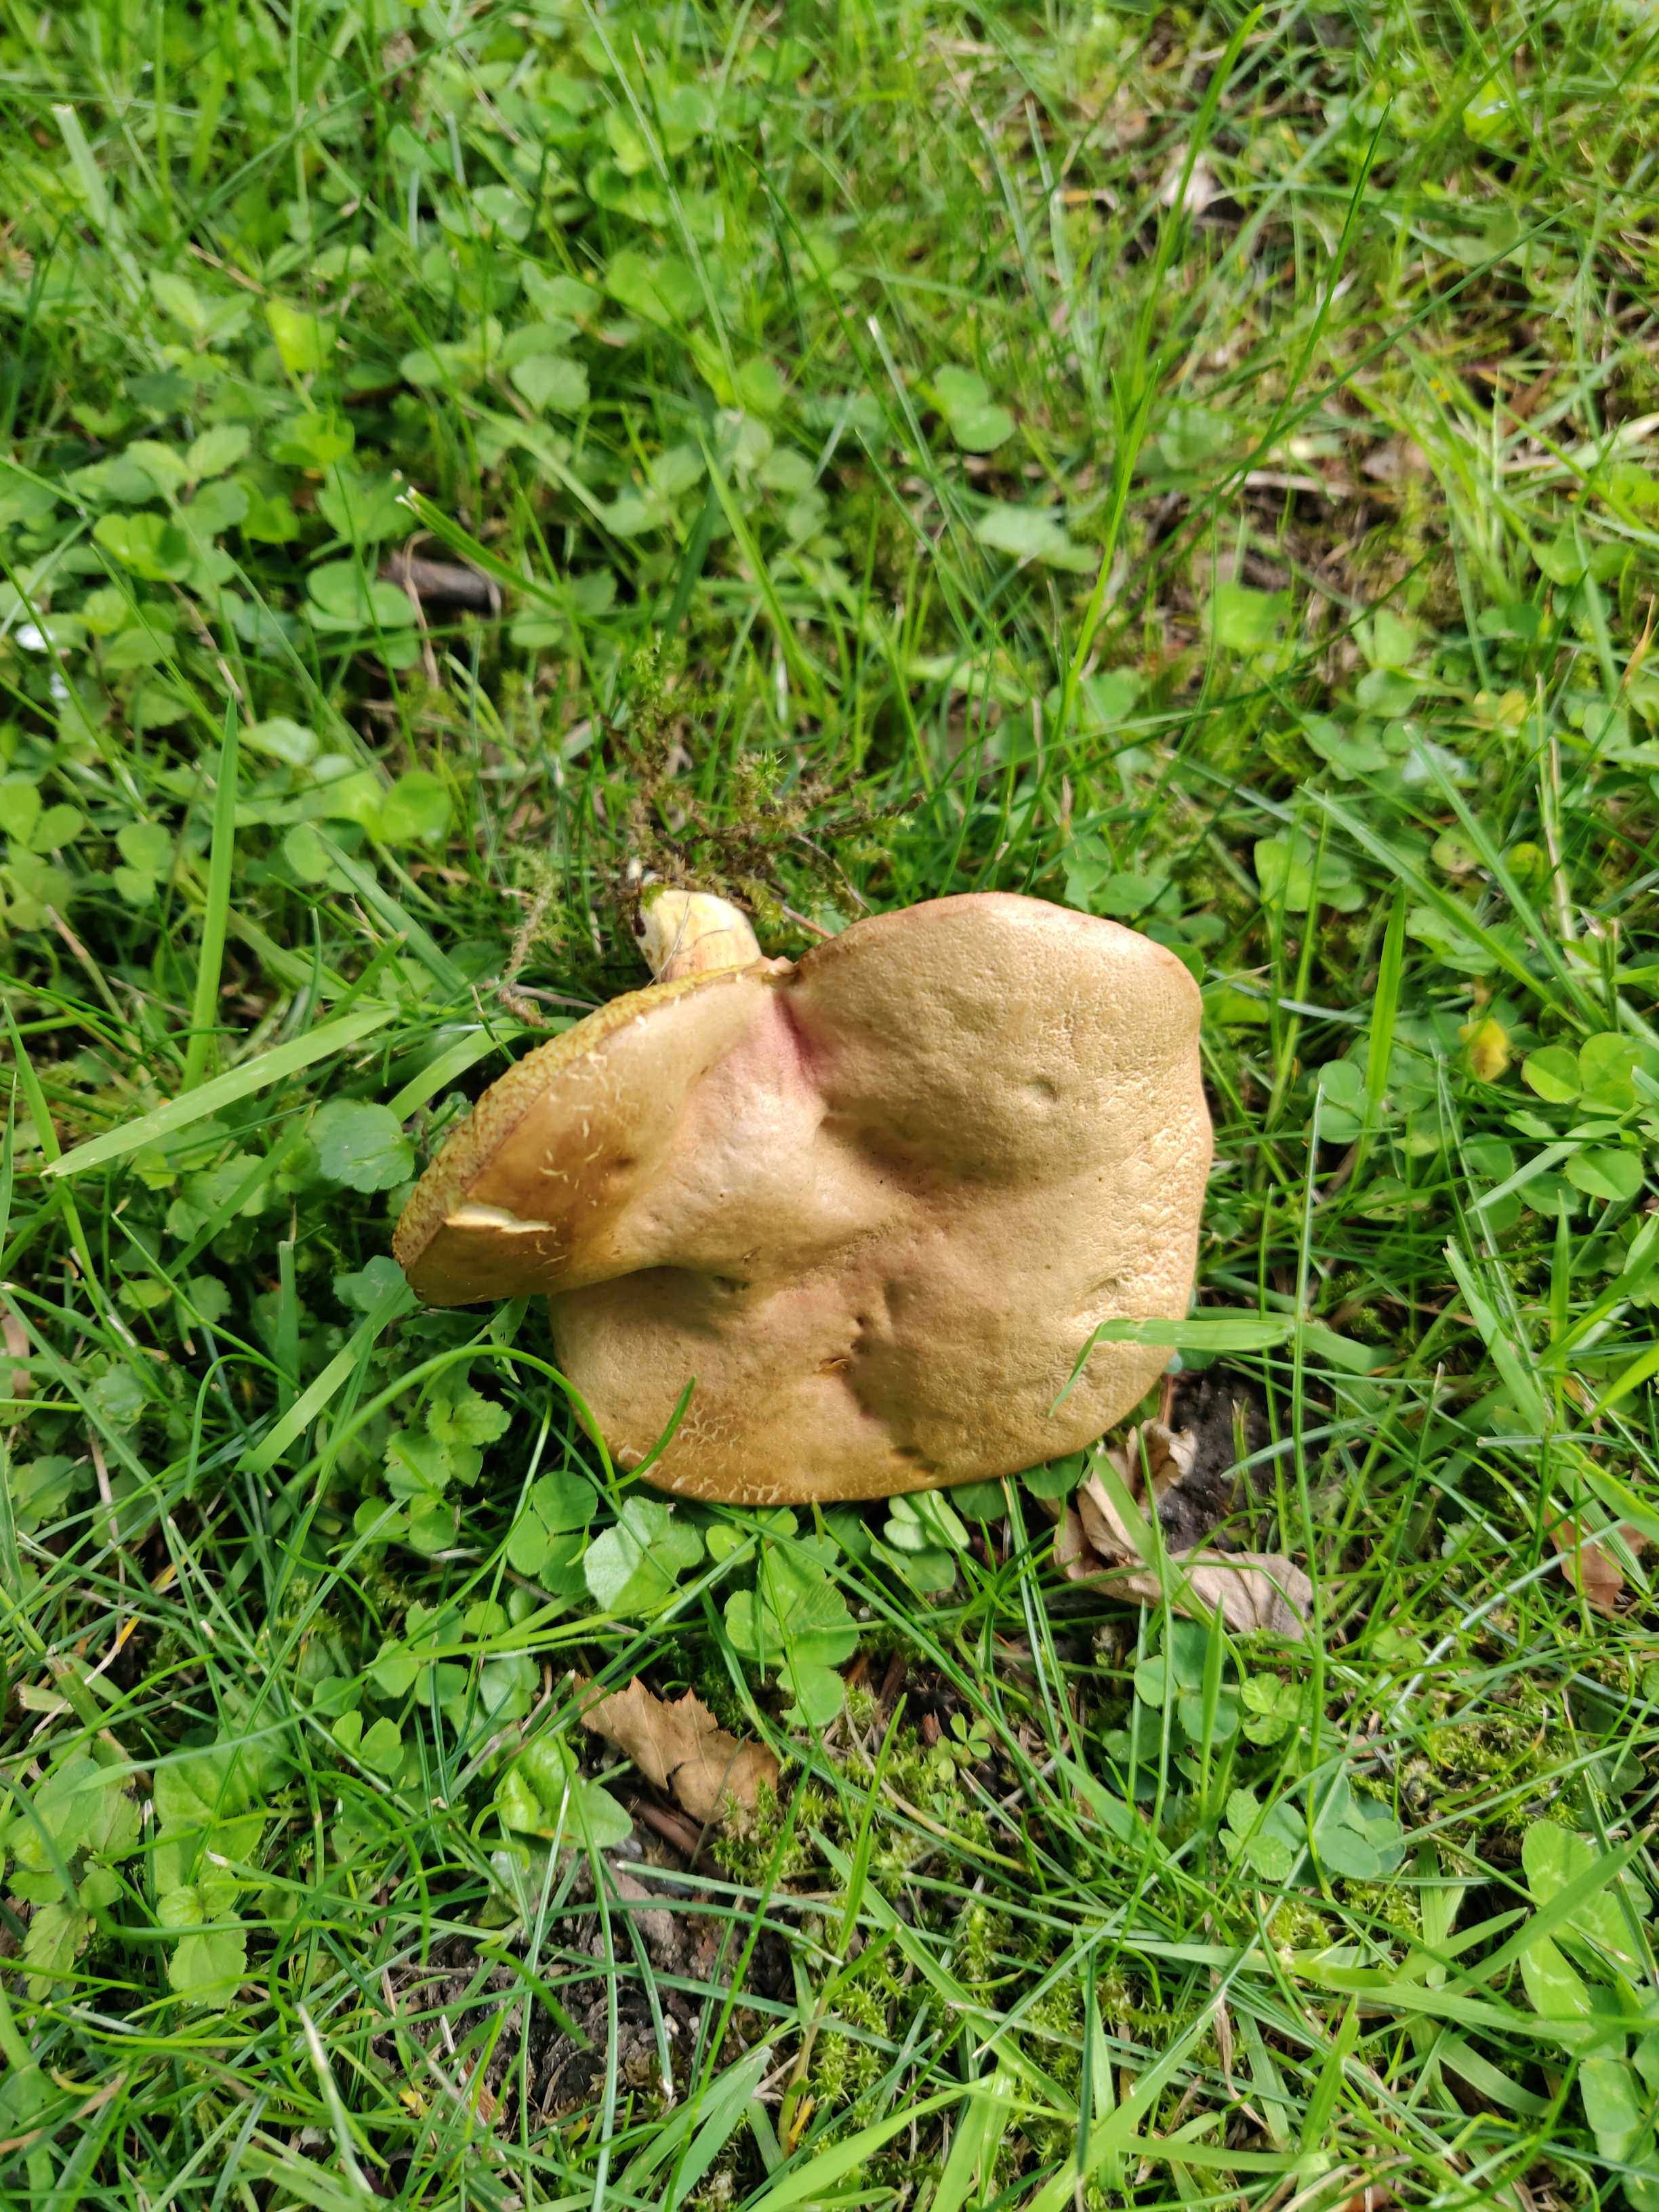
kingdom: Fungi
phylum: Basidiomycota
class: Agaricomycetes
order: Boletales
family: Boletaceae
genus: Hortiboletus
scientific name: Hortiboletus
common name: dværgrørhat
